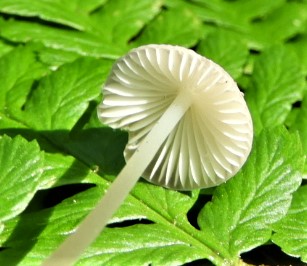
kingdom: Fungi
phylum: Basidiomycota
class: Agaricomycetes
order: Agaricales
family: Mycenaceae
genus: Mycena
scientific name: Mycena vitilis
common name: blankstokket huesvamp
